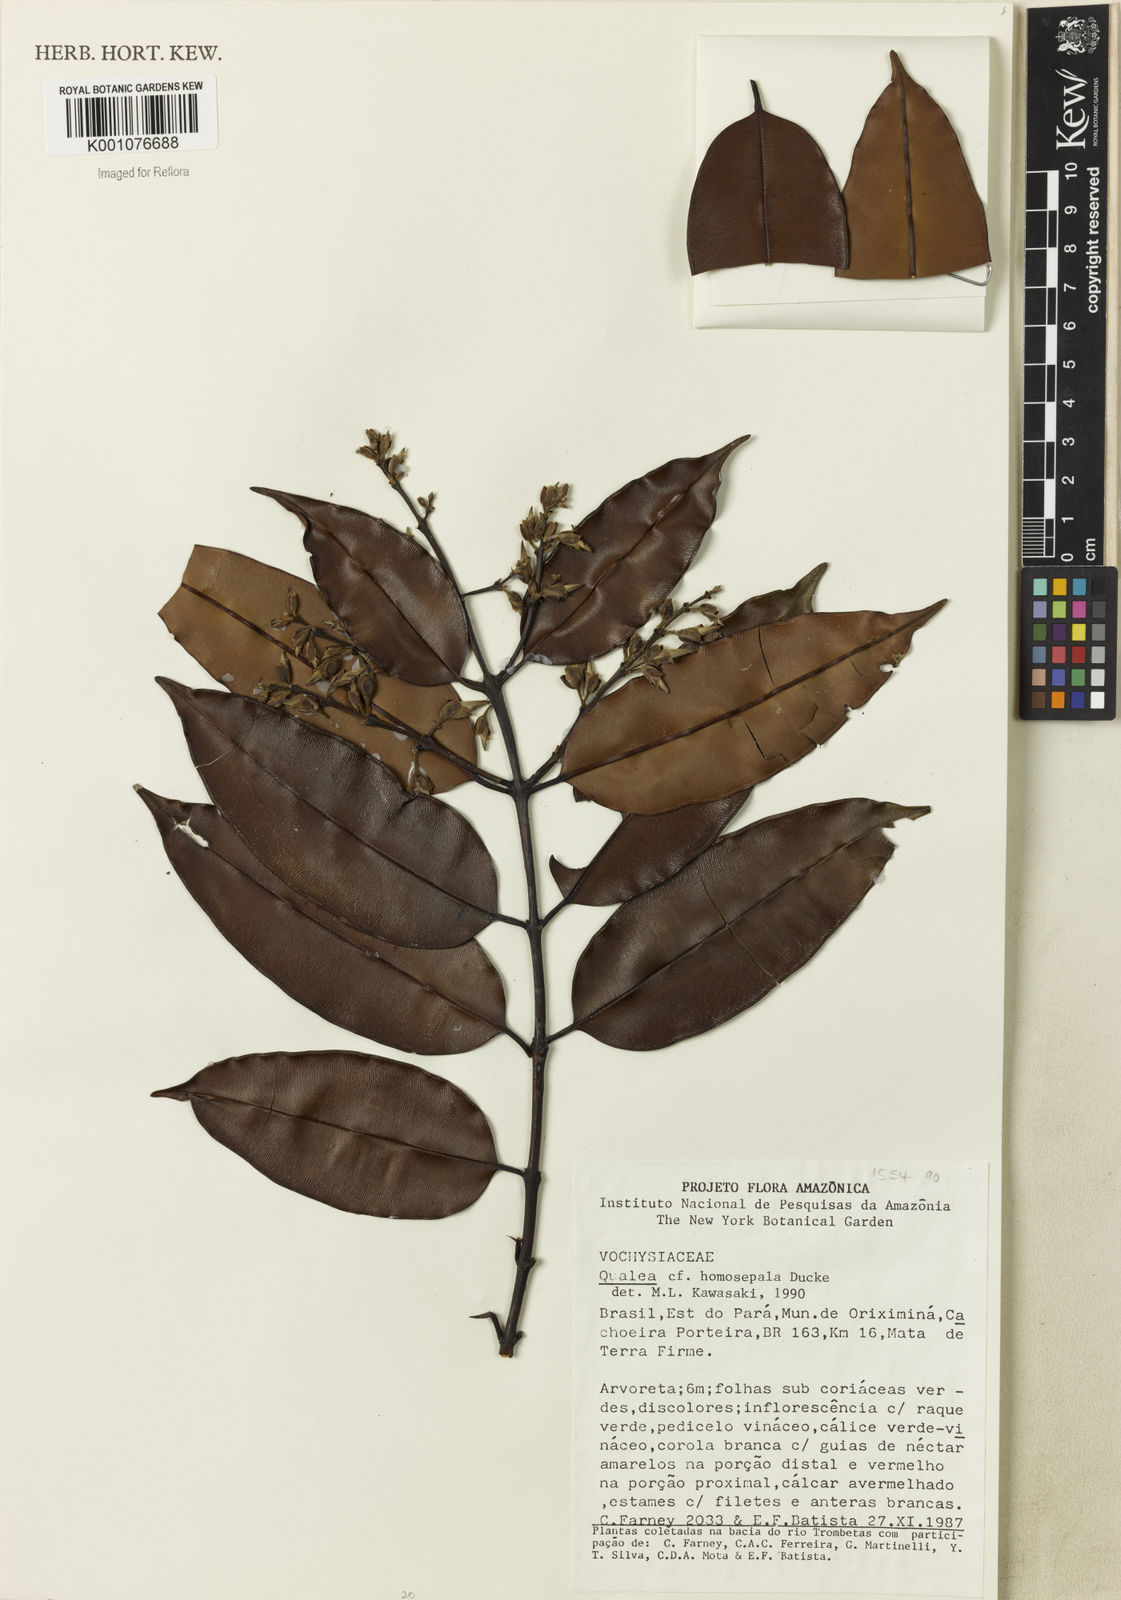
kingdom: Plantae
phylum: Tracheophyta
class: Magnoliopsida
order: Myrtales
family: Vochysiaceae
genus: Qualea
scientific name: Qualea homosepala
